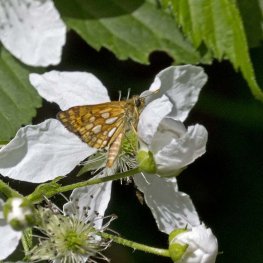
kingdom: Animalia
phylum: Arthropoda
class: Insecta
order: Lepidoptera
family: Hesperiidae
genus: Carterocephalus
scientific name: Carterocephalus palaemon
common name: Chequered Skipper
